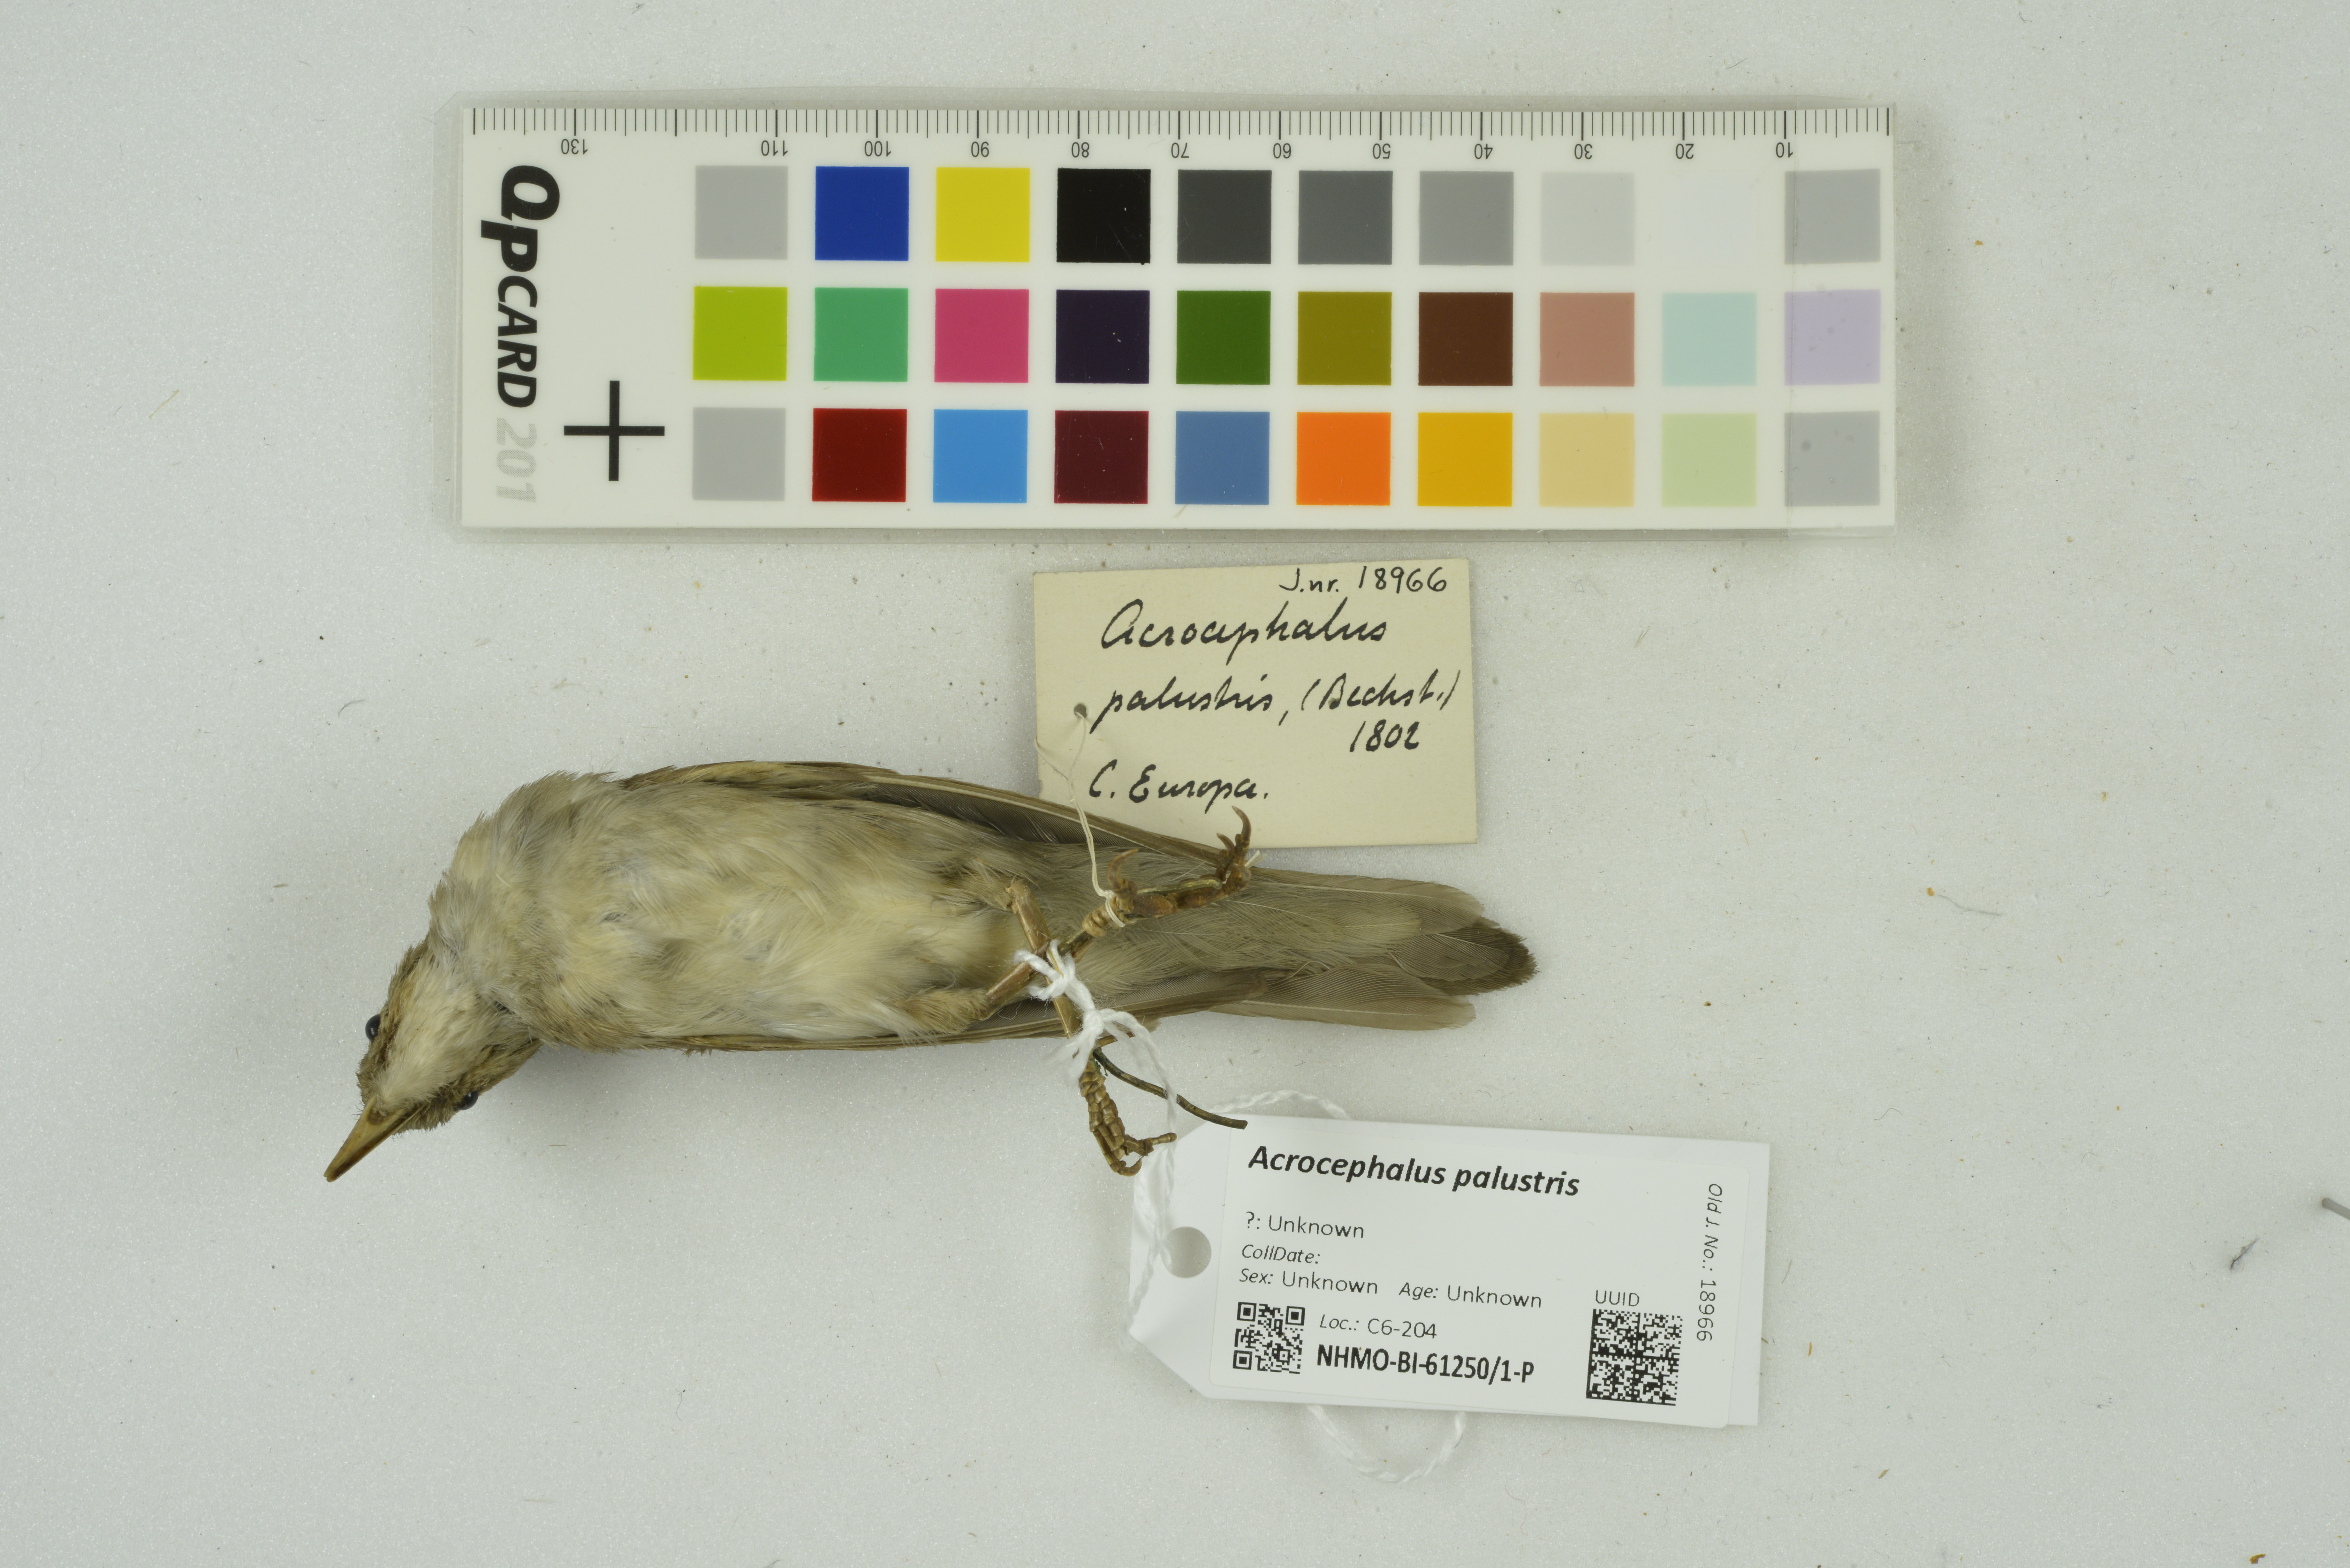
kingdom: Animalia
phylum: Chordata
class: Aves
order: Passeriformes
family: Acrocephalidae
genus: Acrocephalus
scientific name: Acrocephalus palustris
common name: Marsh warbler
